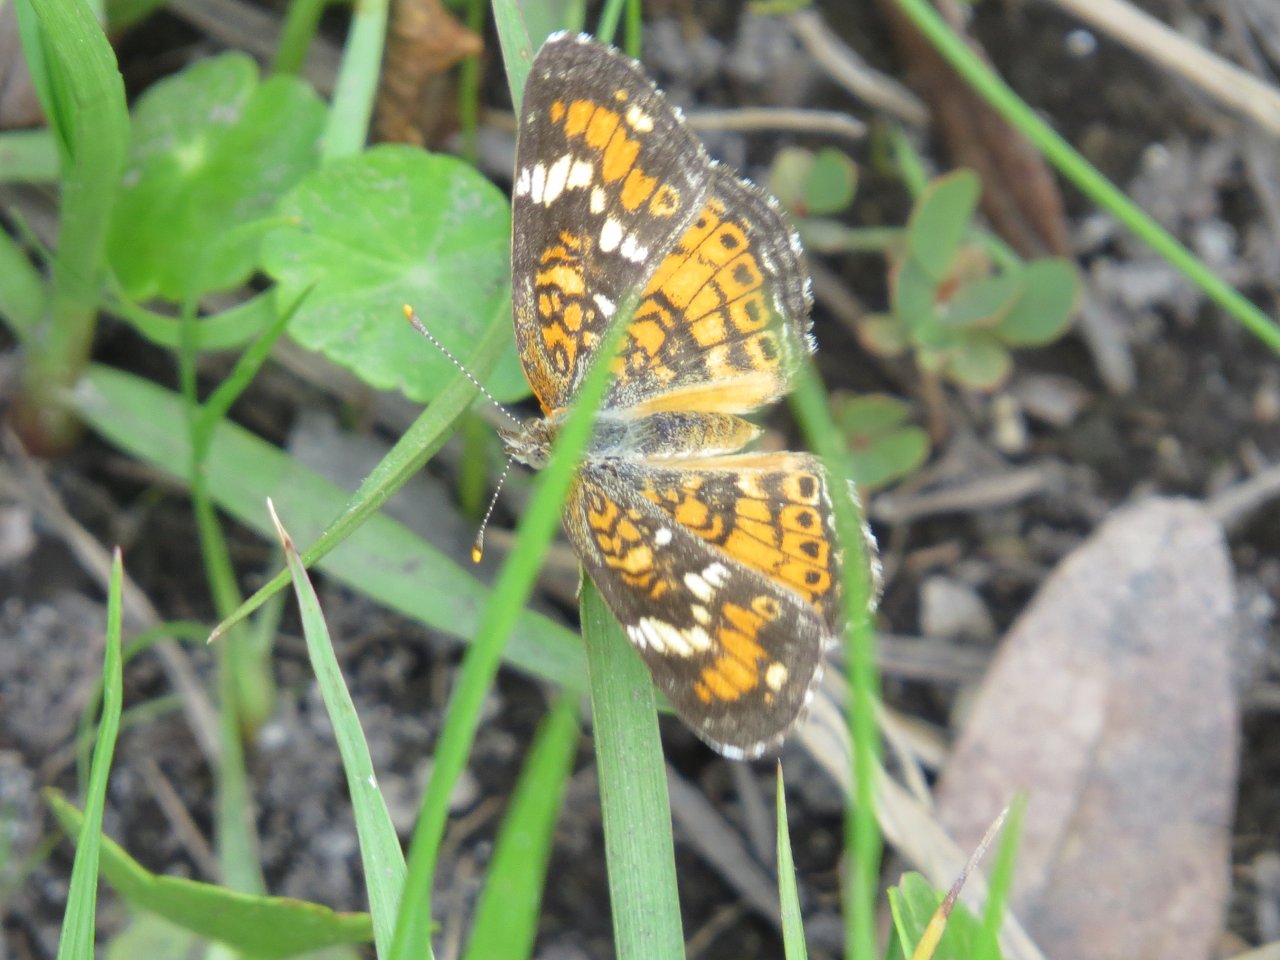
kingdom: Animalia
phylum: Arthropoda
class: Insecta
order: Lepidoptera
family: Nymphalidae
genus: Phyciodes
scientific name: Phyciodes phaon
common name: Phaon Crescent
